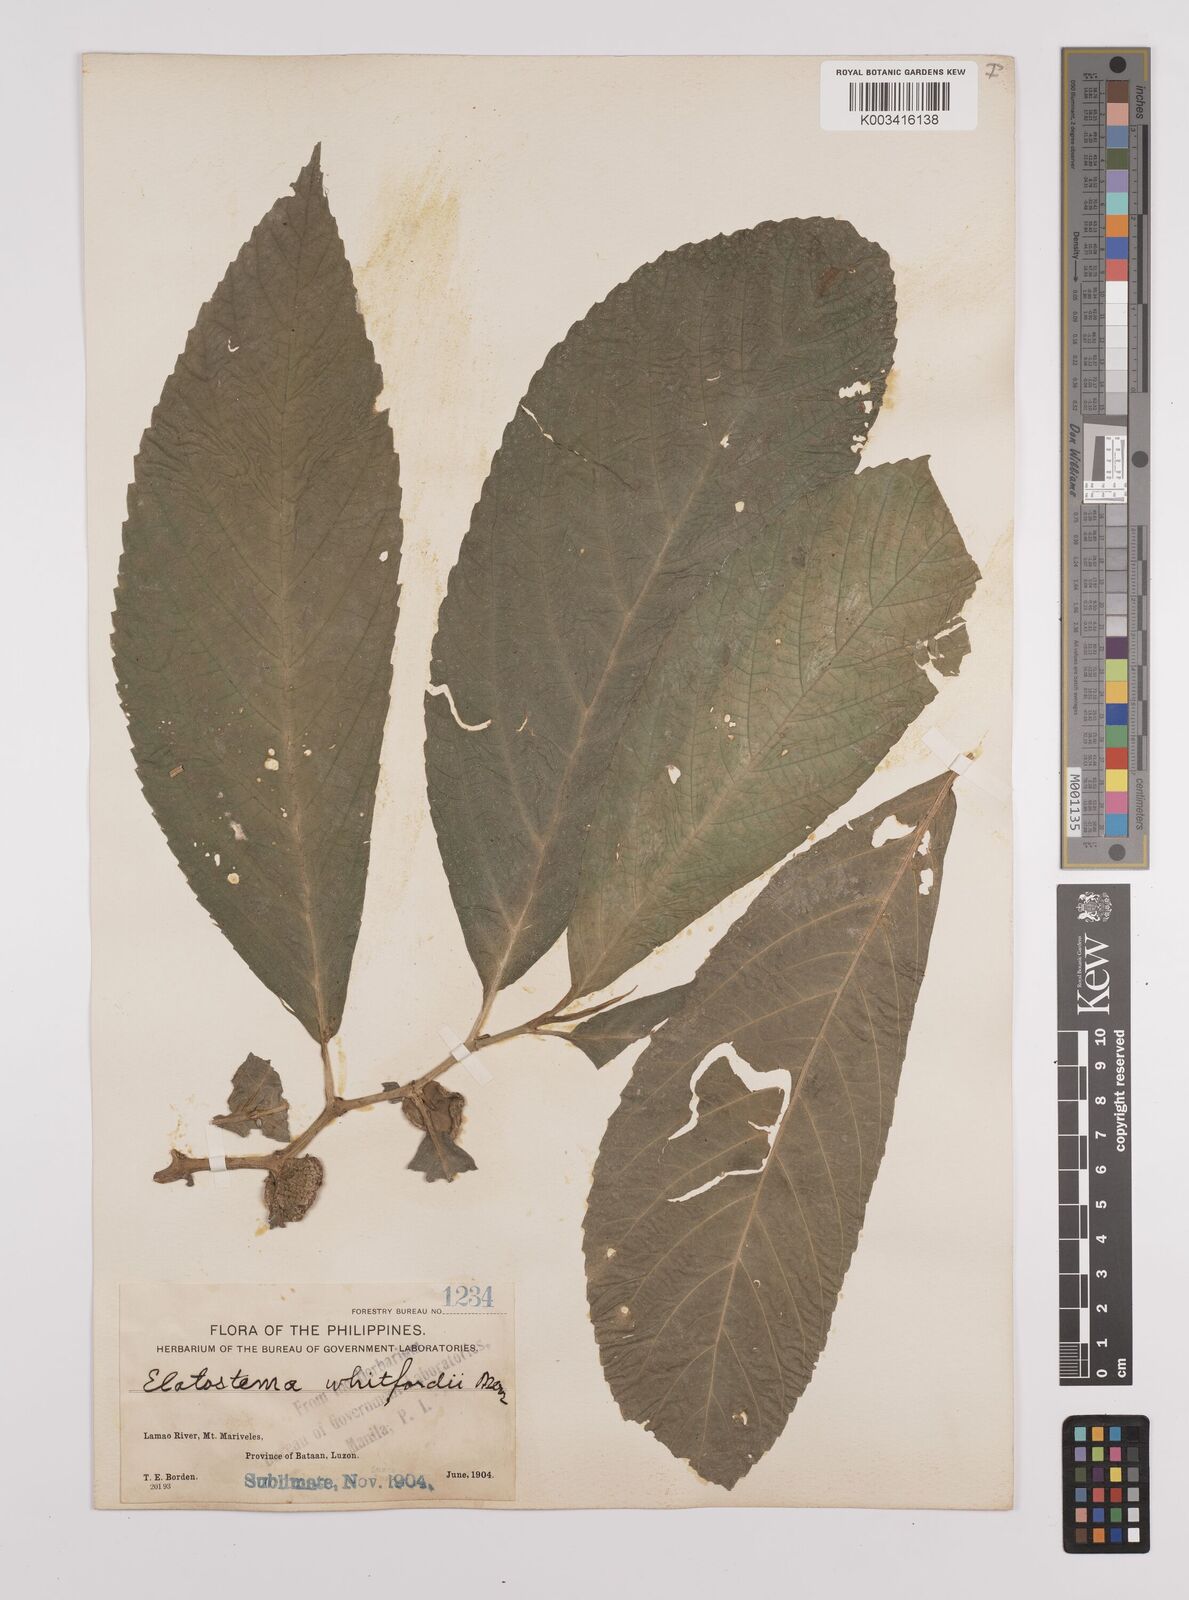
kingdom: Plantae
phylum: Tracheophyta
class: Magnoliopsida
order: Rosales
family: Urticaceae
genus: Elatostema
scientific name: Elatostema whitfordii
